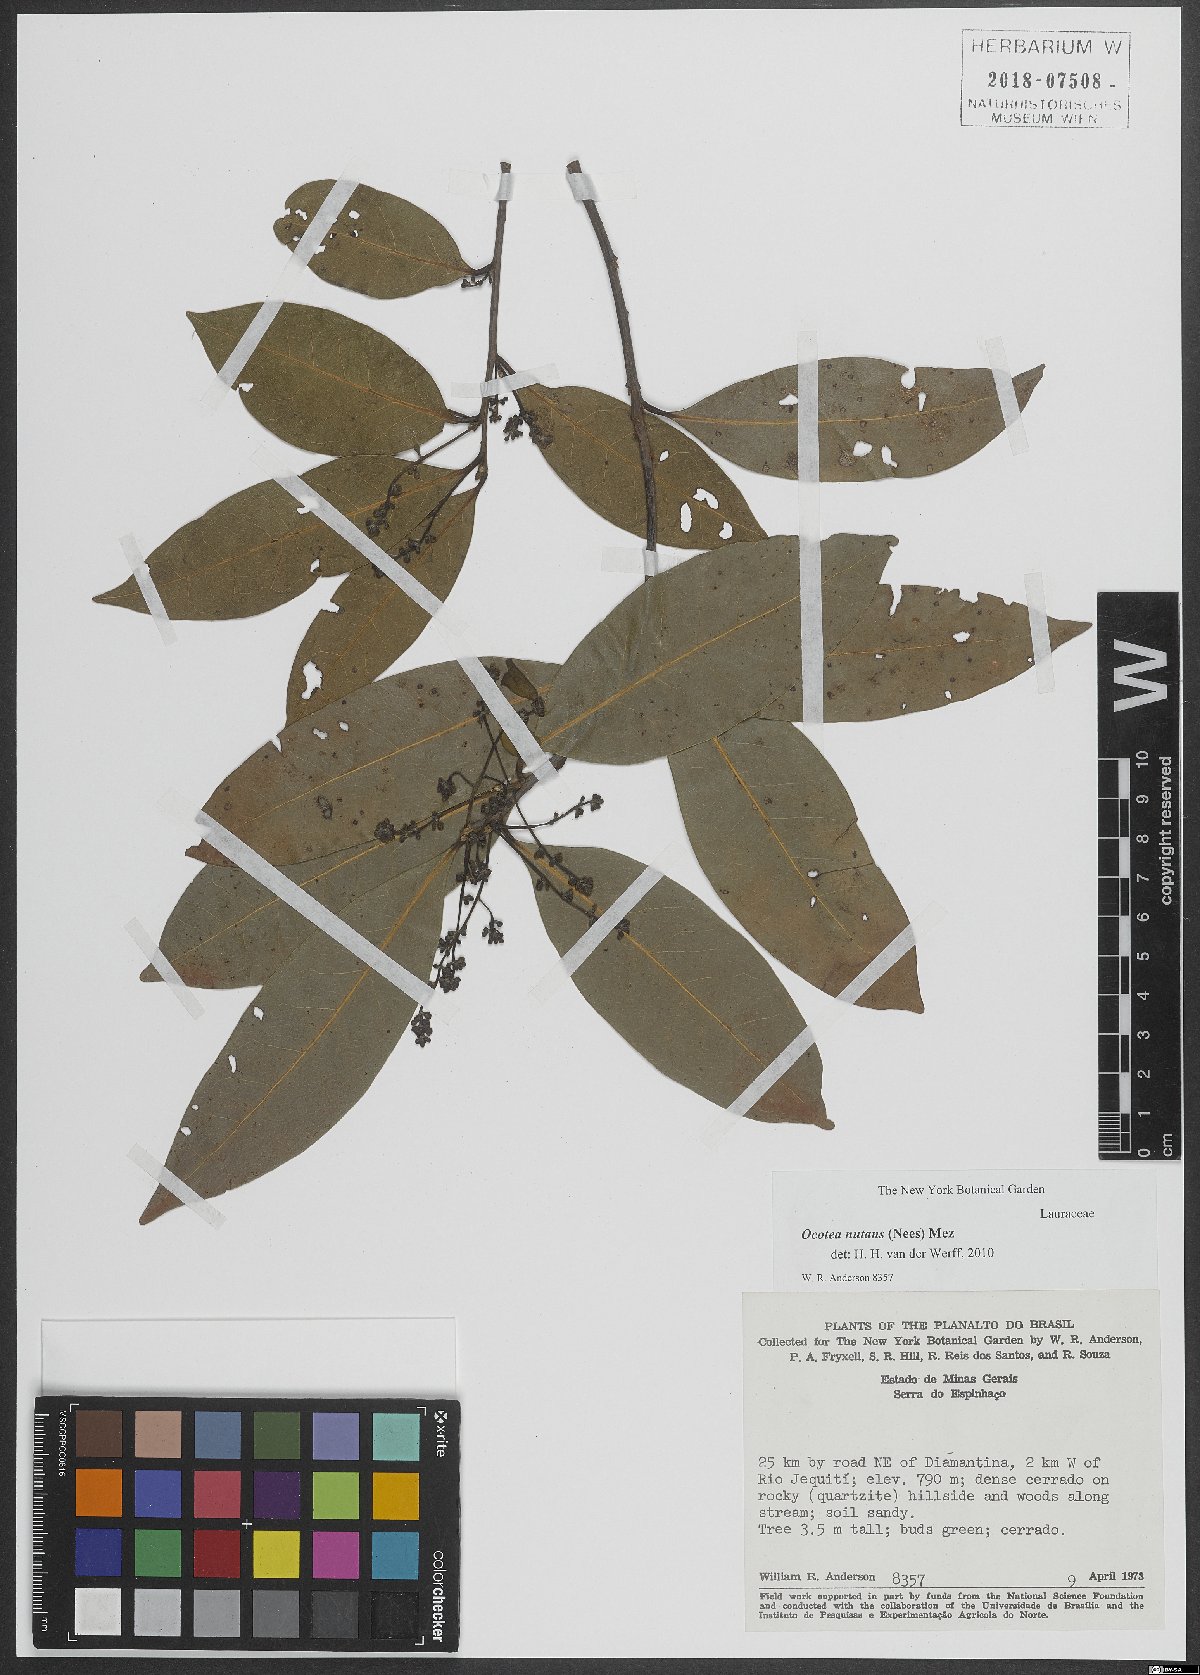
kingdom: Plantae
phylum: Tracheophyta
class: Magnoliopsida
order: Laurales
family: Lauraceae
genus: Mespilodaphne
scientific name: Mespilodaphne nutans
